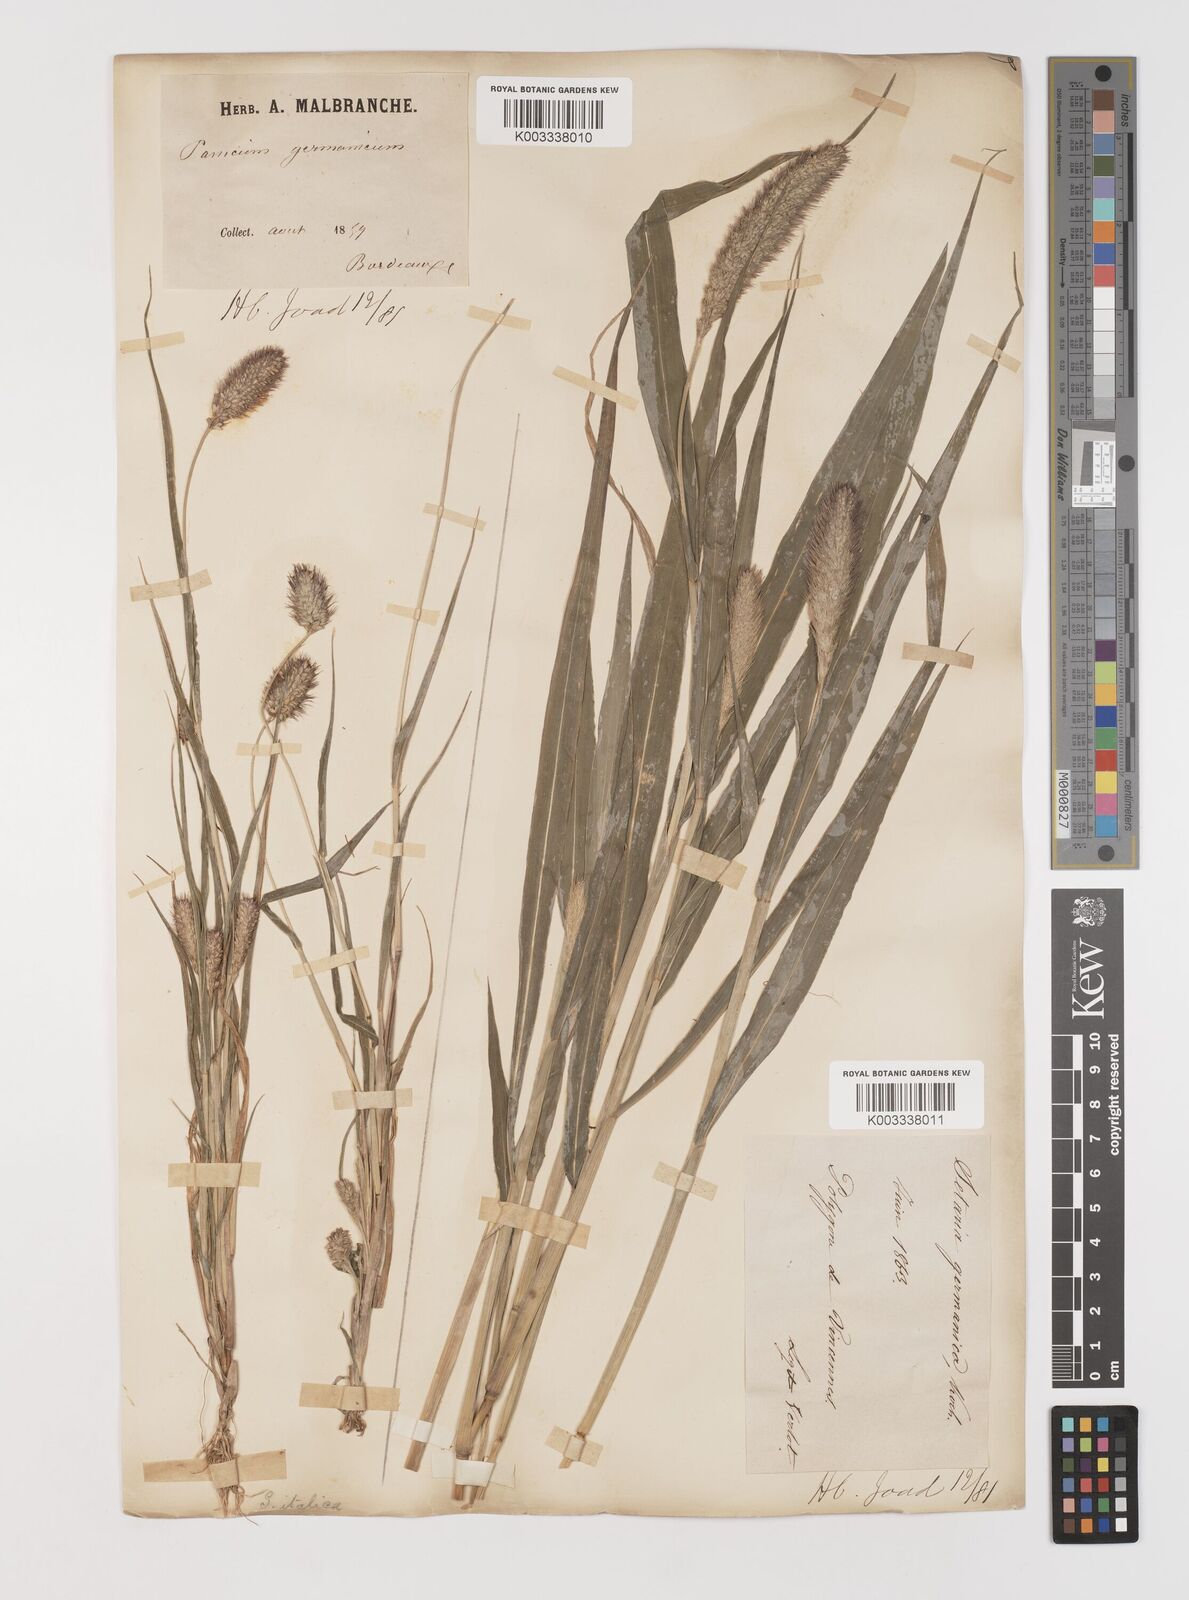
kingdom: Plantae
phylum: Tracheophyta
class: Liliopsida
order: Poales
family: Poaceae
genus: Setaria
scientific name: Setaria italica
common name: Foxtail bristle-grass
